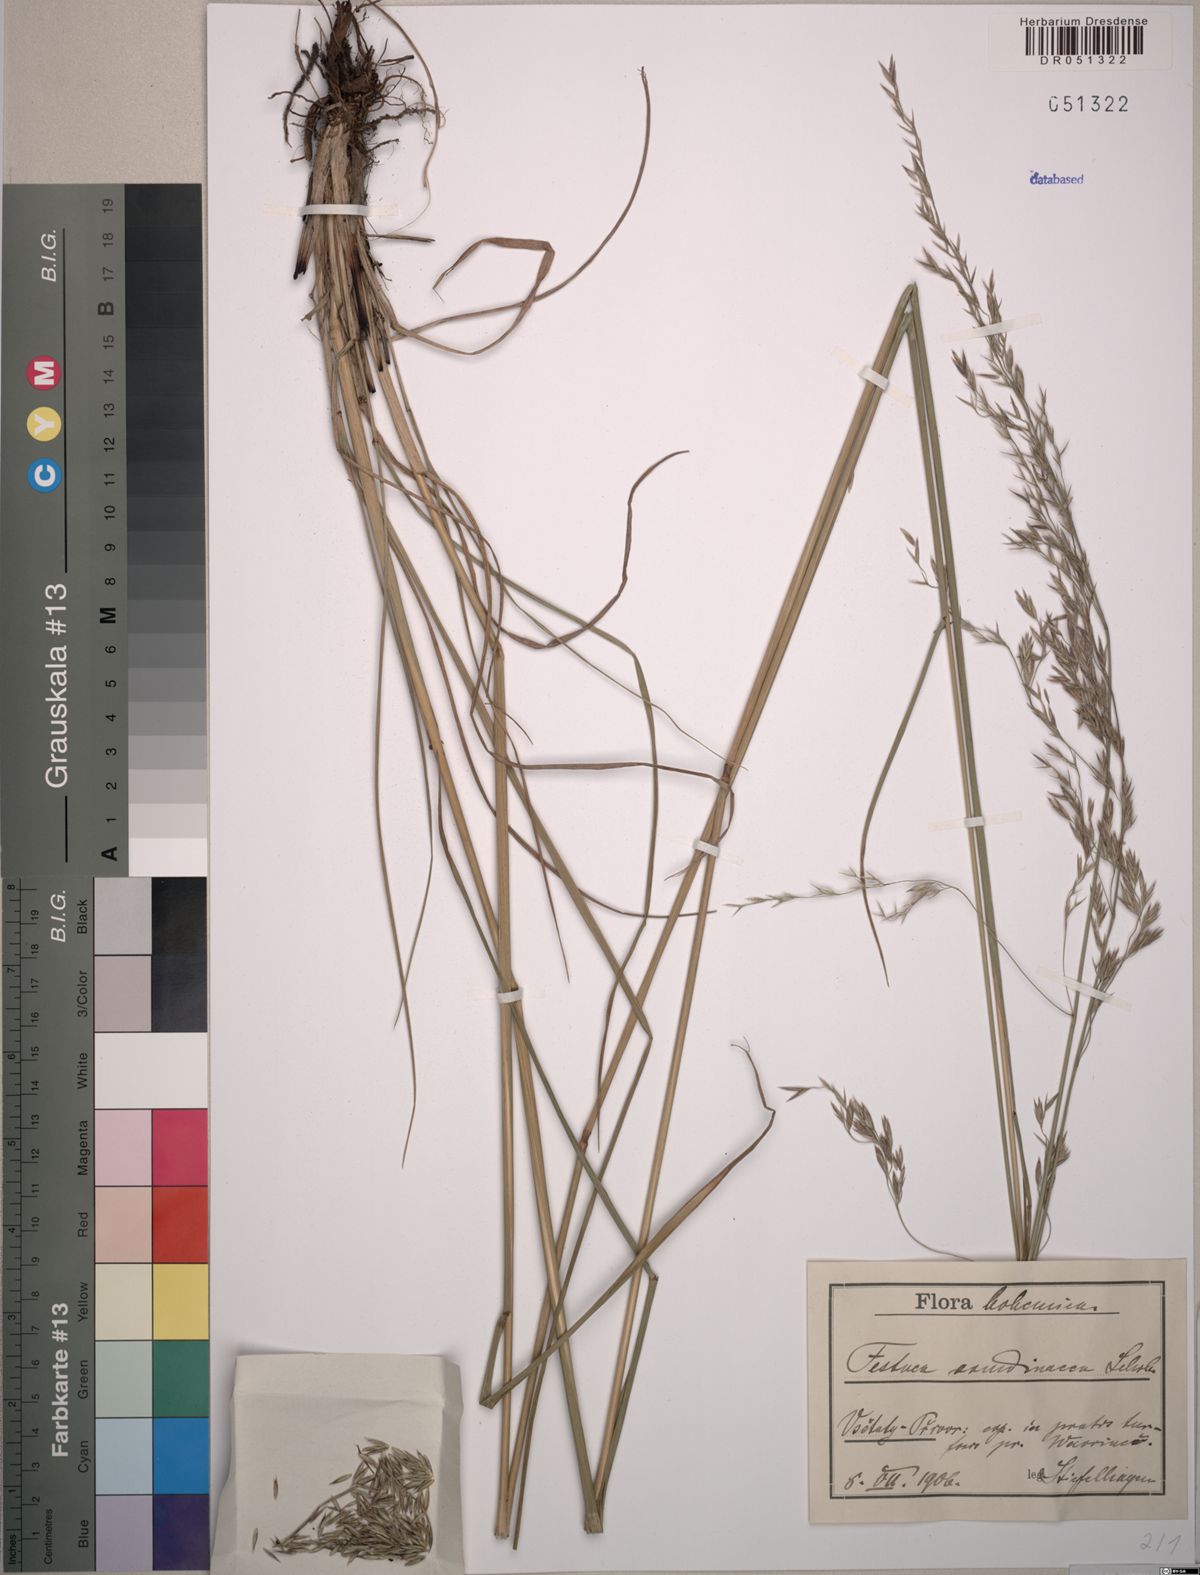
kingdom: Plantae
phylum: Tracheophyta
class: Liliopsida
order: Poales
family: Poaceae
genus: Lolium
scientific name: Lolium arundinaceum
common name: Reed fescue
